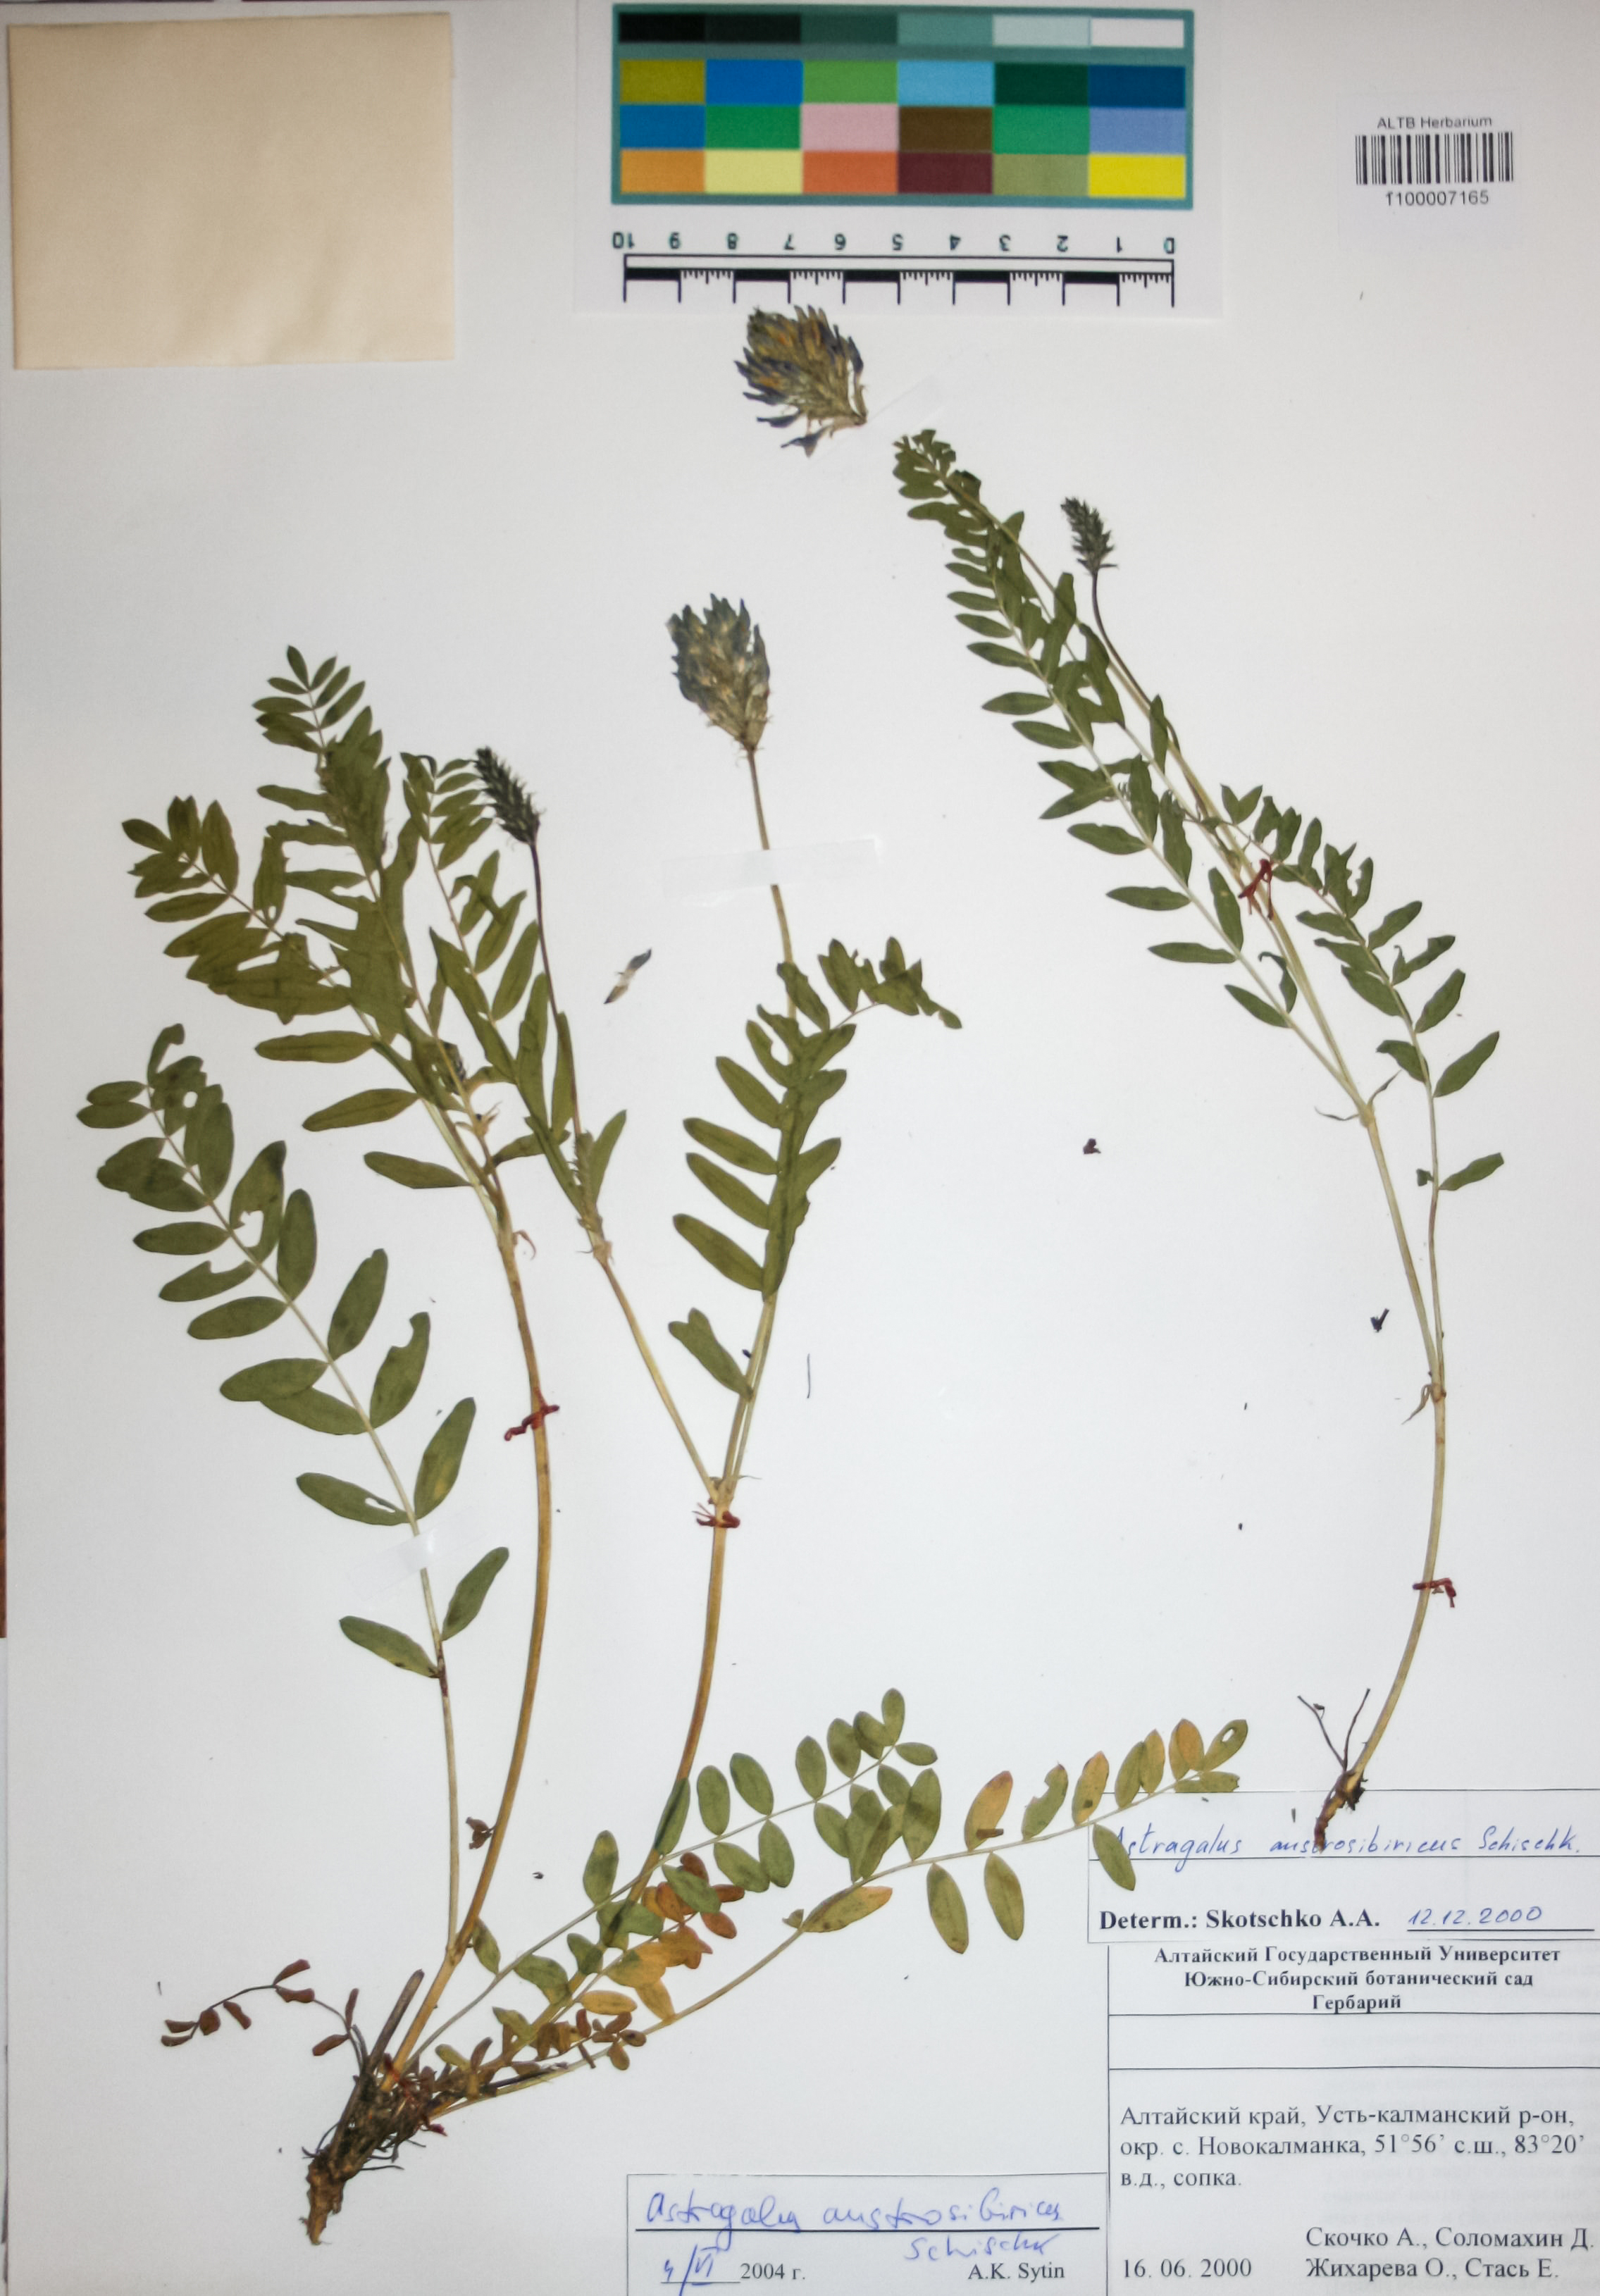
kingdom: Plantae
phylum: Tracheophyta
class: Magnoliopsida
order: Fabales
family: Fabaceae
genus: Astragalus
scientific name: Astragalus laxmannii
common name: Laxmann's milk-vetch
